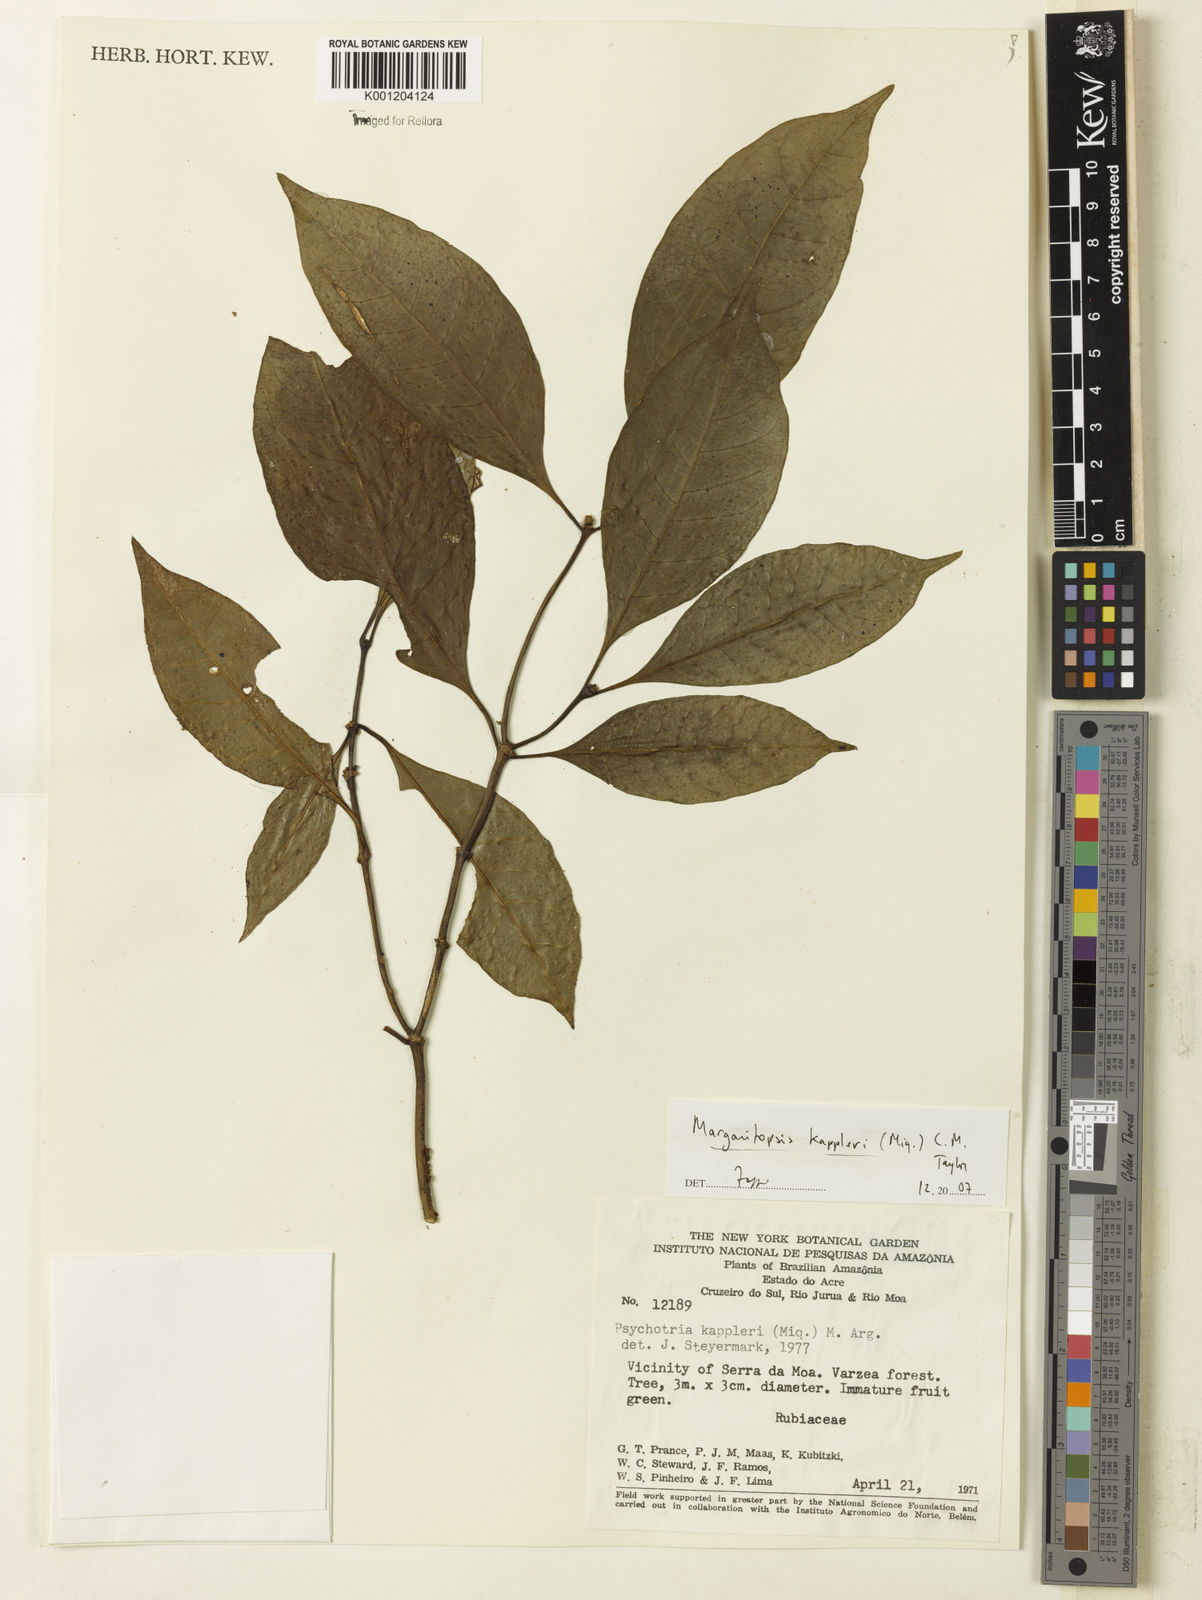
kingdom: Plantae
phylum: Tracheophyta
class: Magnoliopsida
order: Gentianales
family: Rubiaceae
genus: Eumachia
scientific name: Eumachia kappleri
